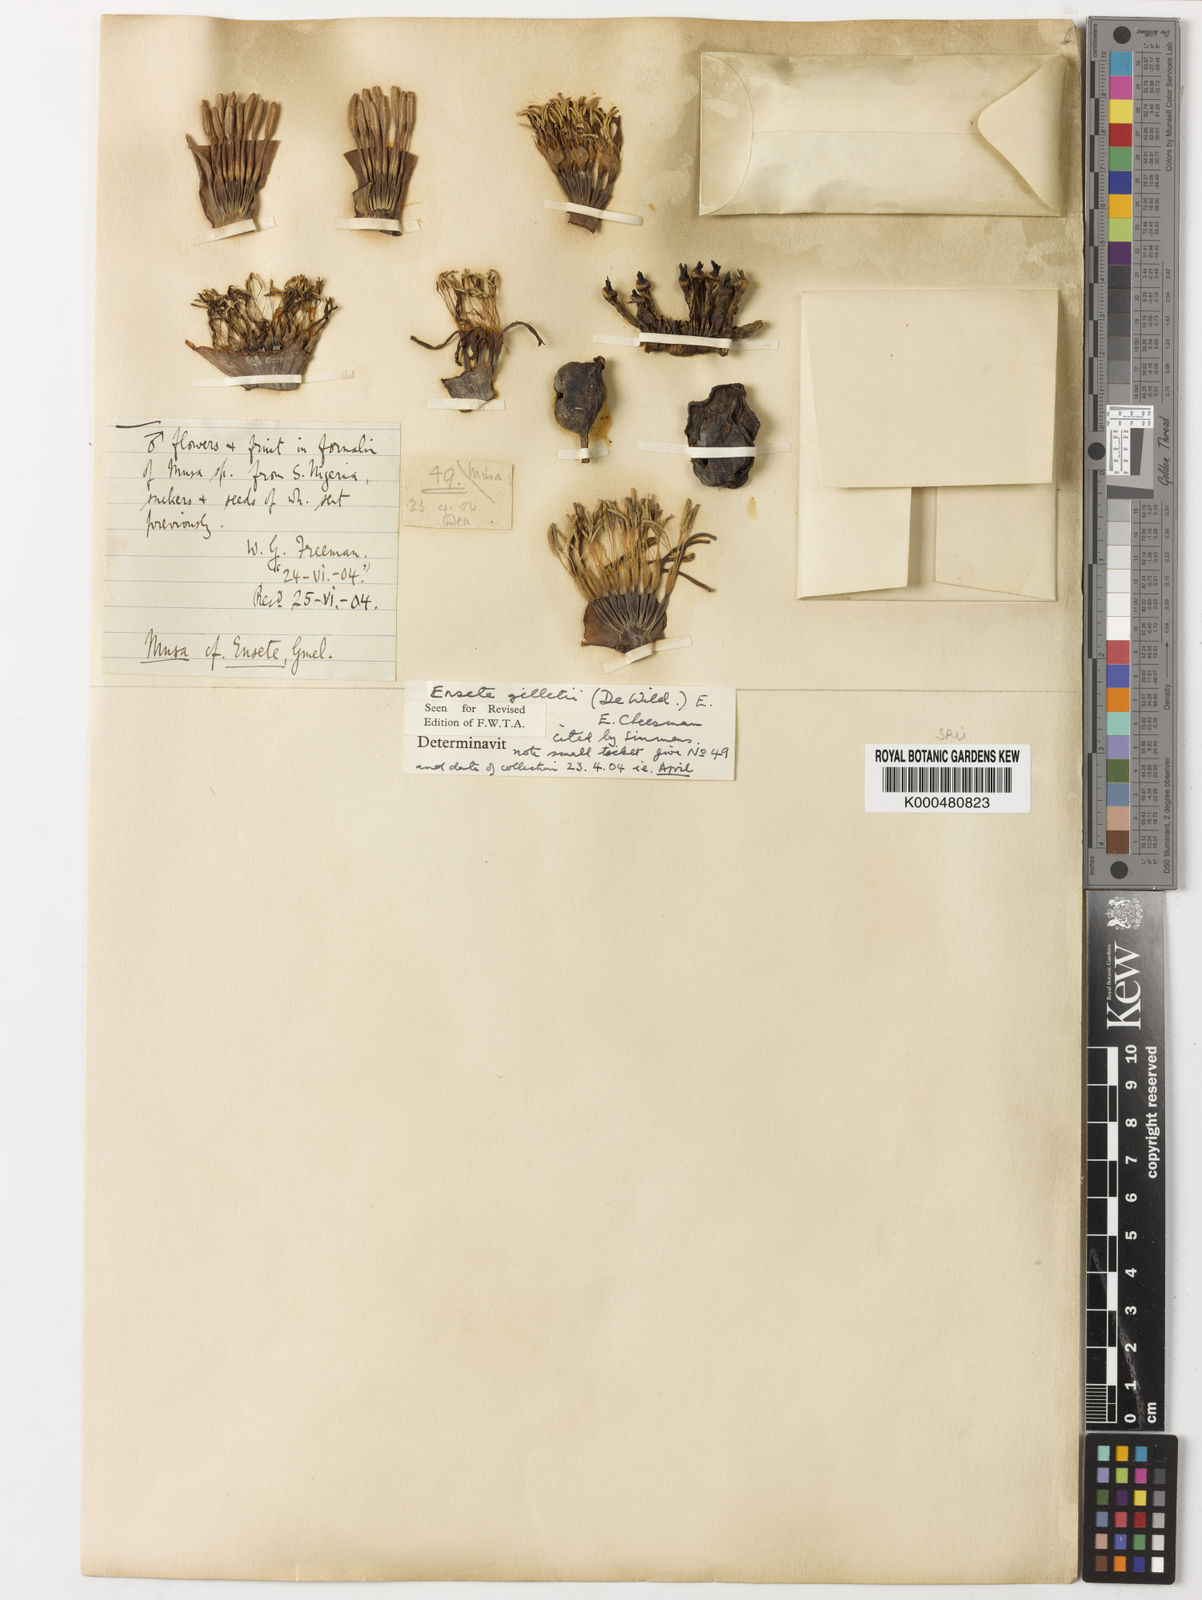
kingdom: Plantae
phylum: Tracheophyta
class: Liliopsida
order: Zingiberales
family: Musaceae
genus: Ensete
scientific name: Ensete livingstonianum
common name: Livingston's banana
